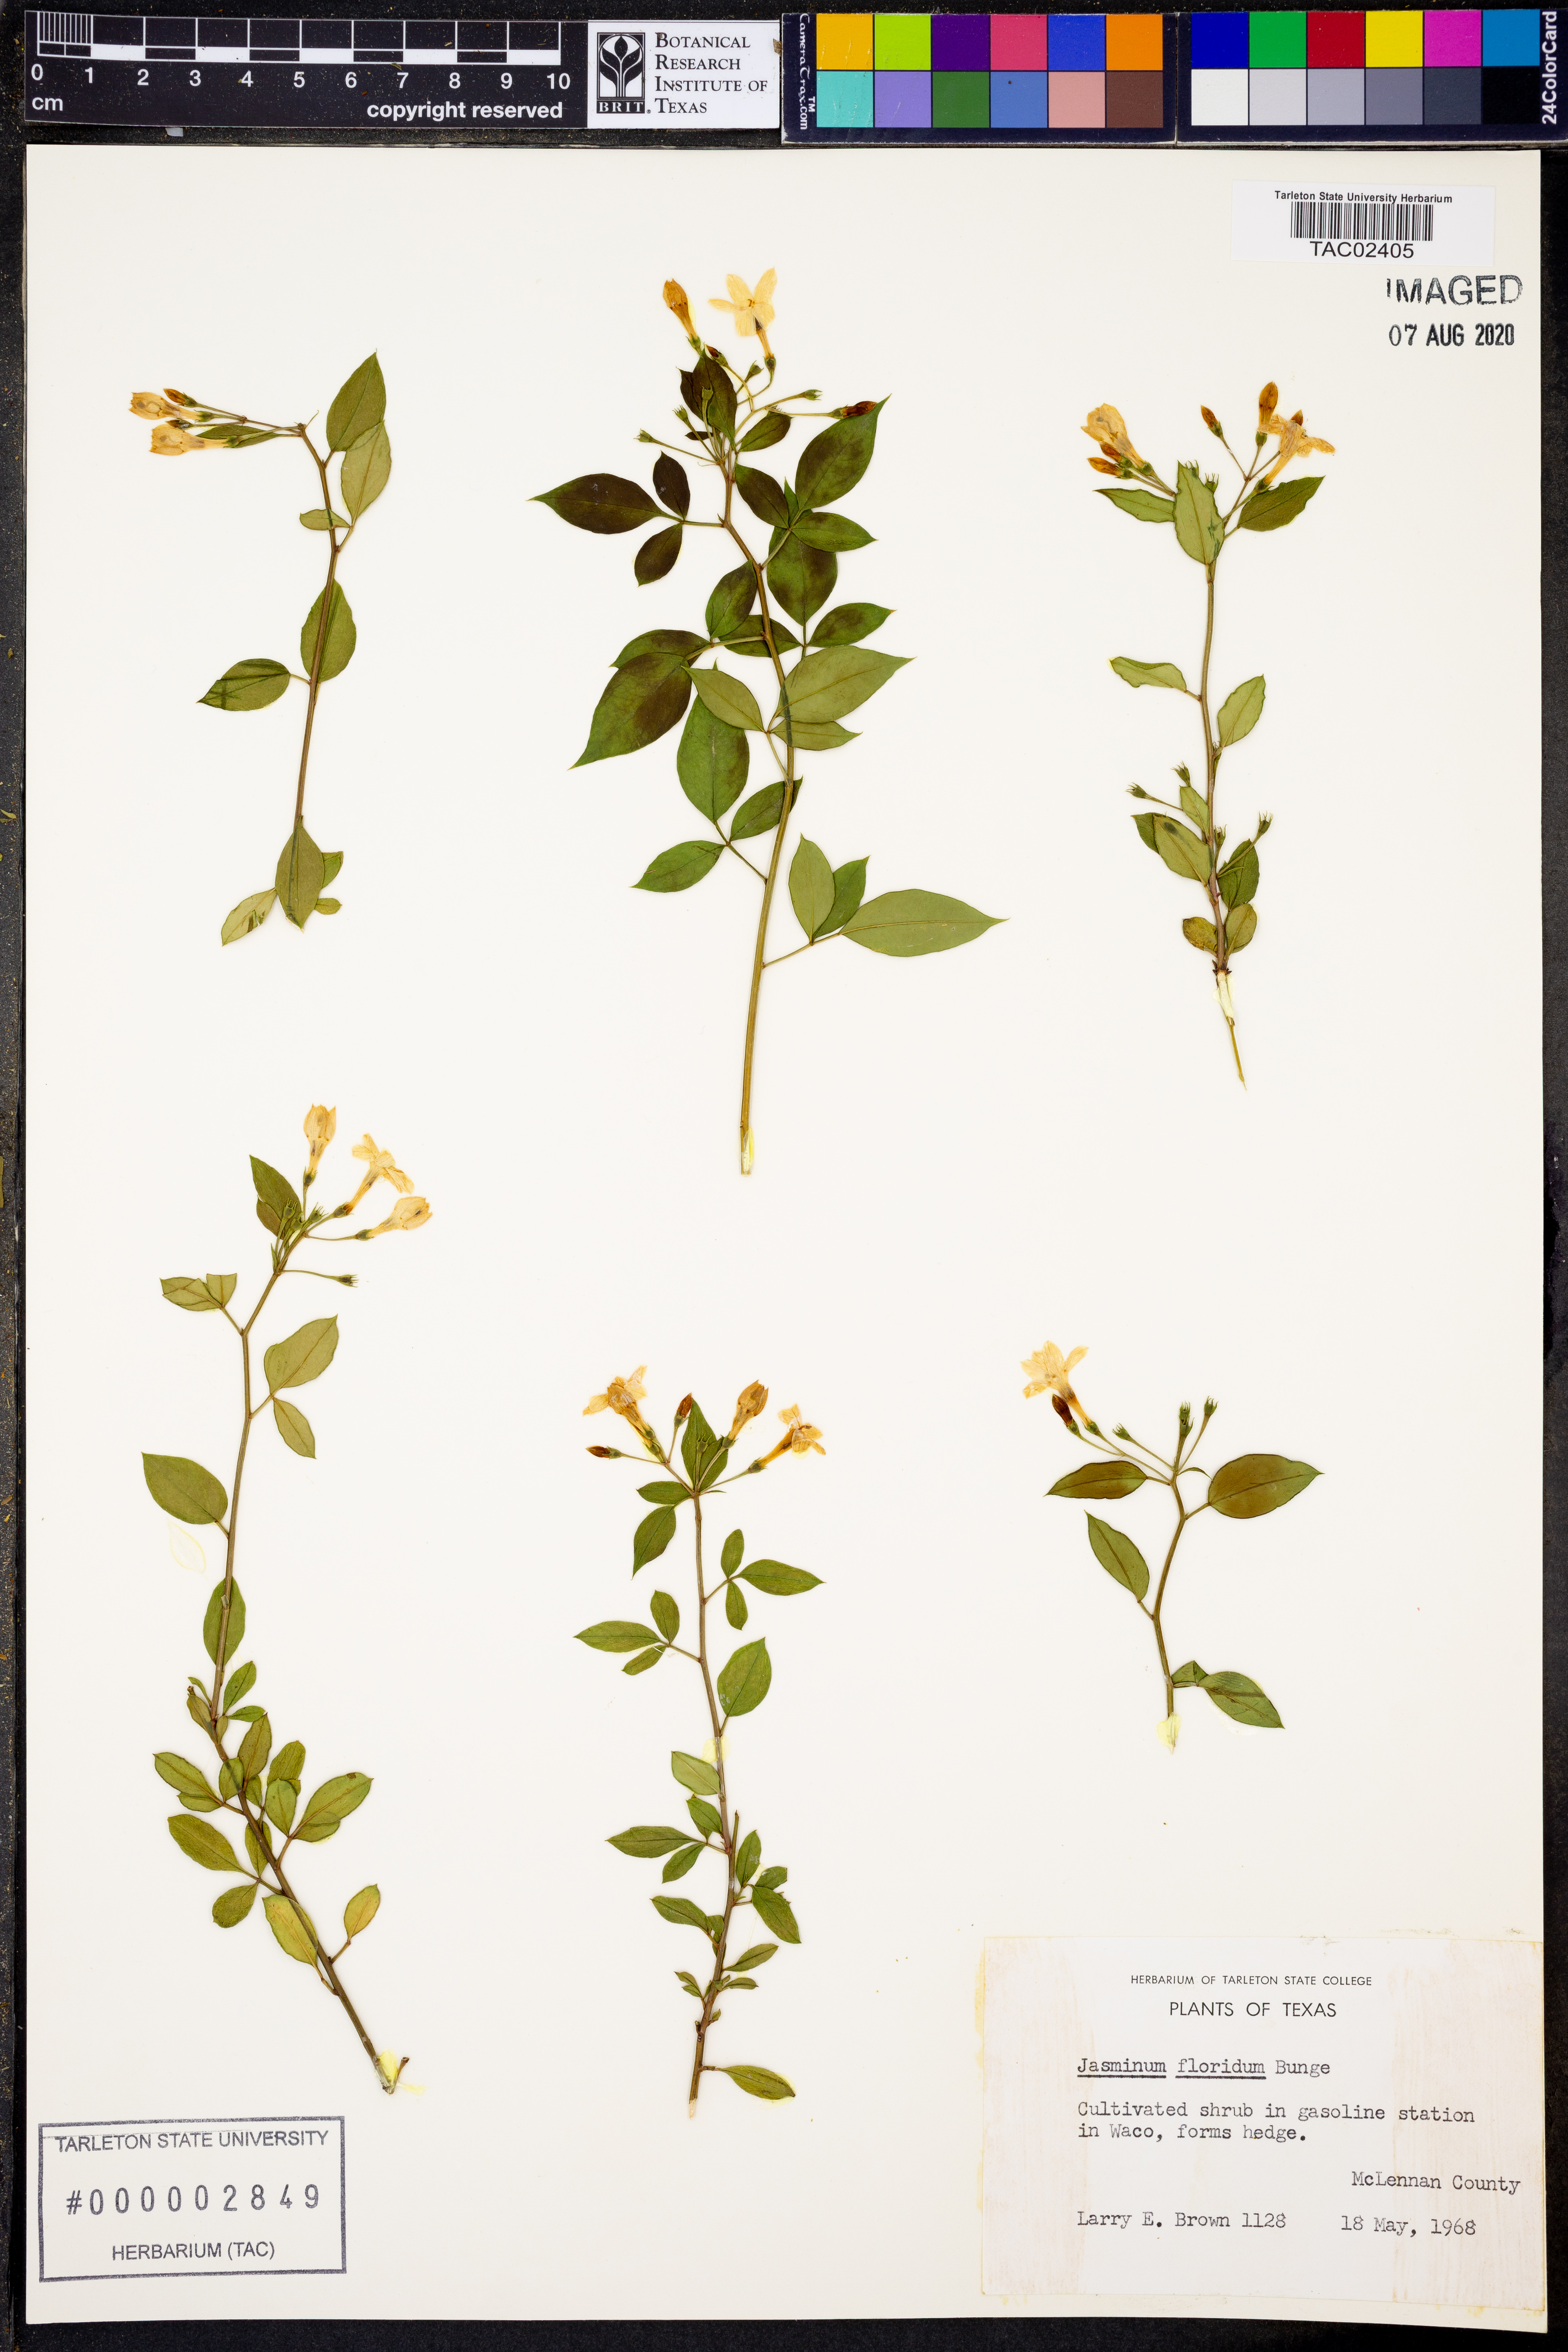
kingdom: Plantae
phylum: Tracheophyta
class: Magnoliopsida
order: Lamiales
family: Oleaceae
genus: Chrysojasminum
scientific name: Chrysojasminum floridum
